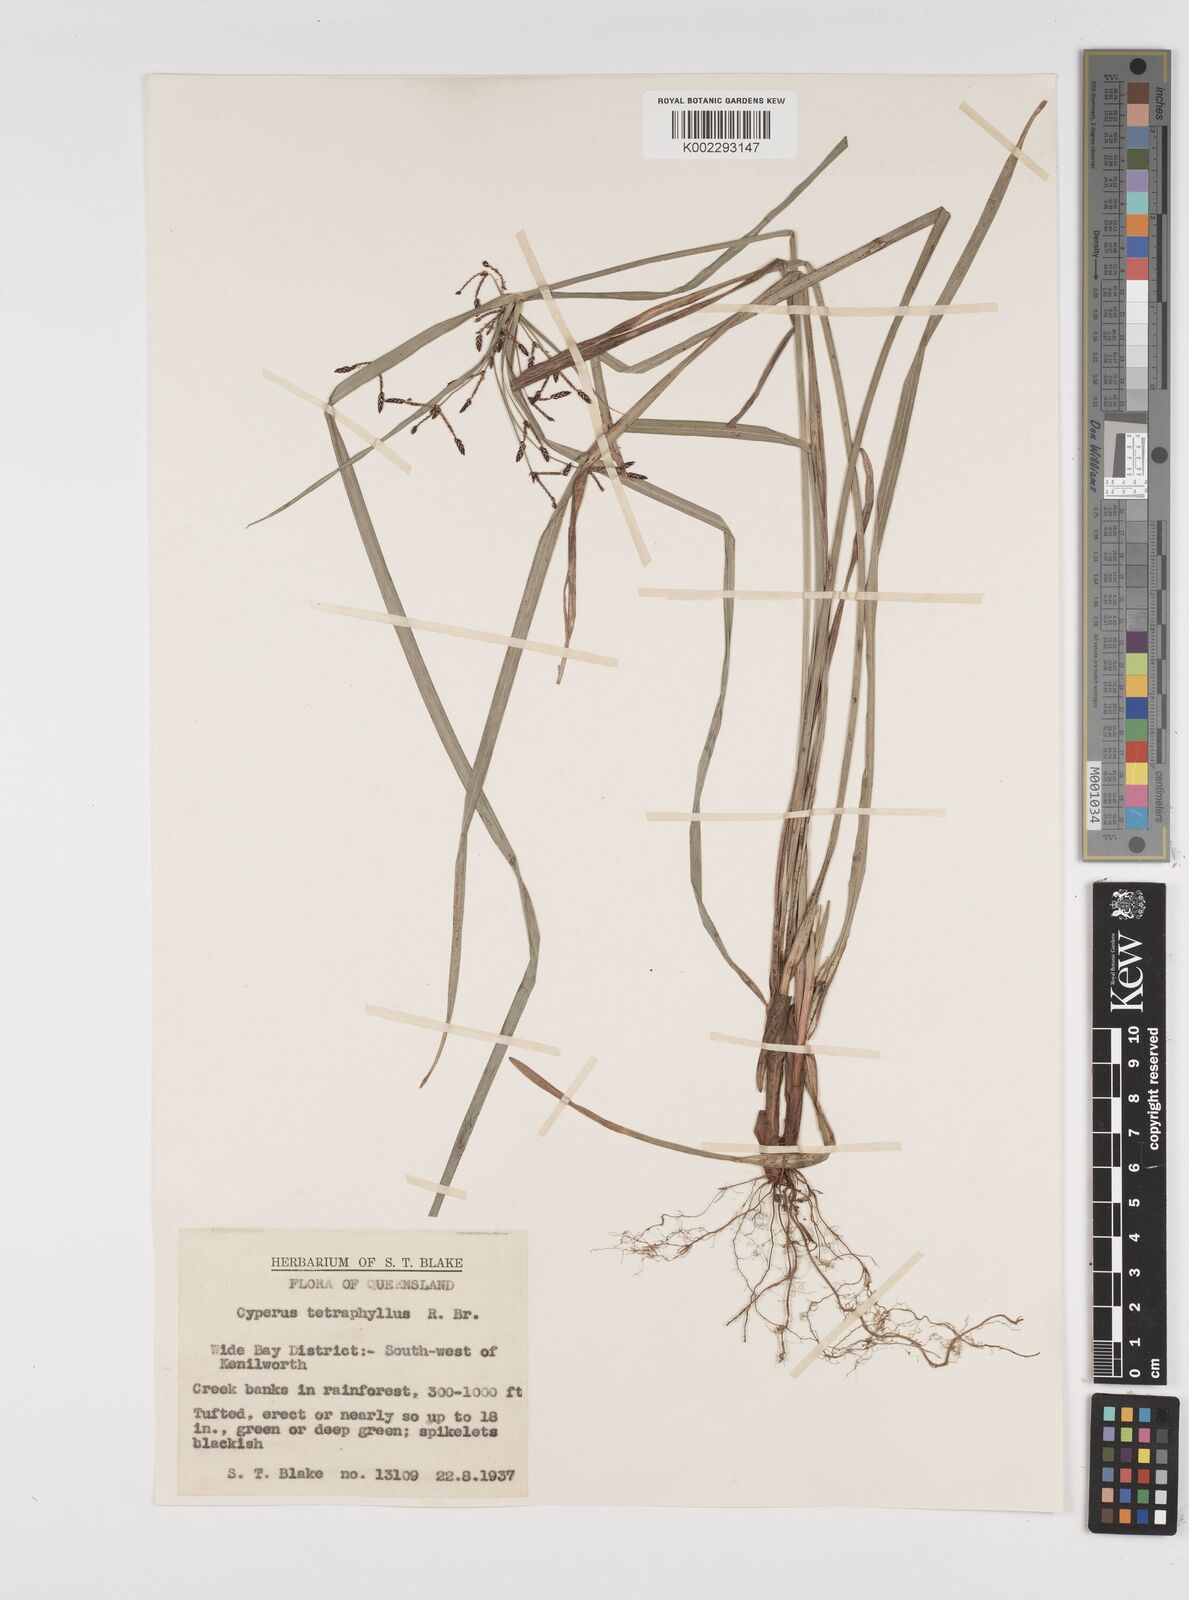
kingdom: Plantae
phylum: Tracheophyta
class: Liliopsida
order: Poales
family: Cyperaceae
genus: Cyperus
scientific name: Cyperus tetraphyllus
